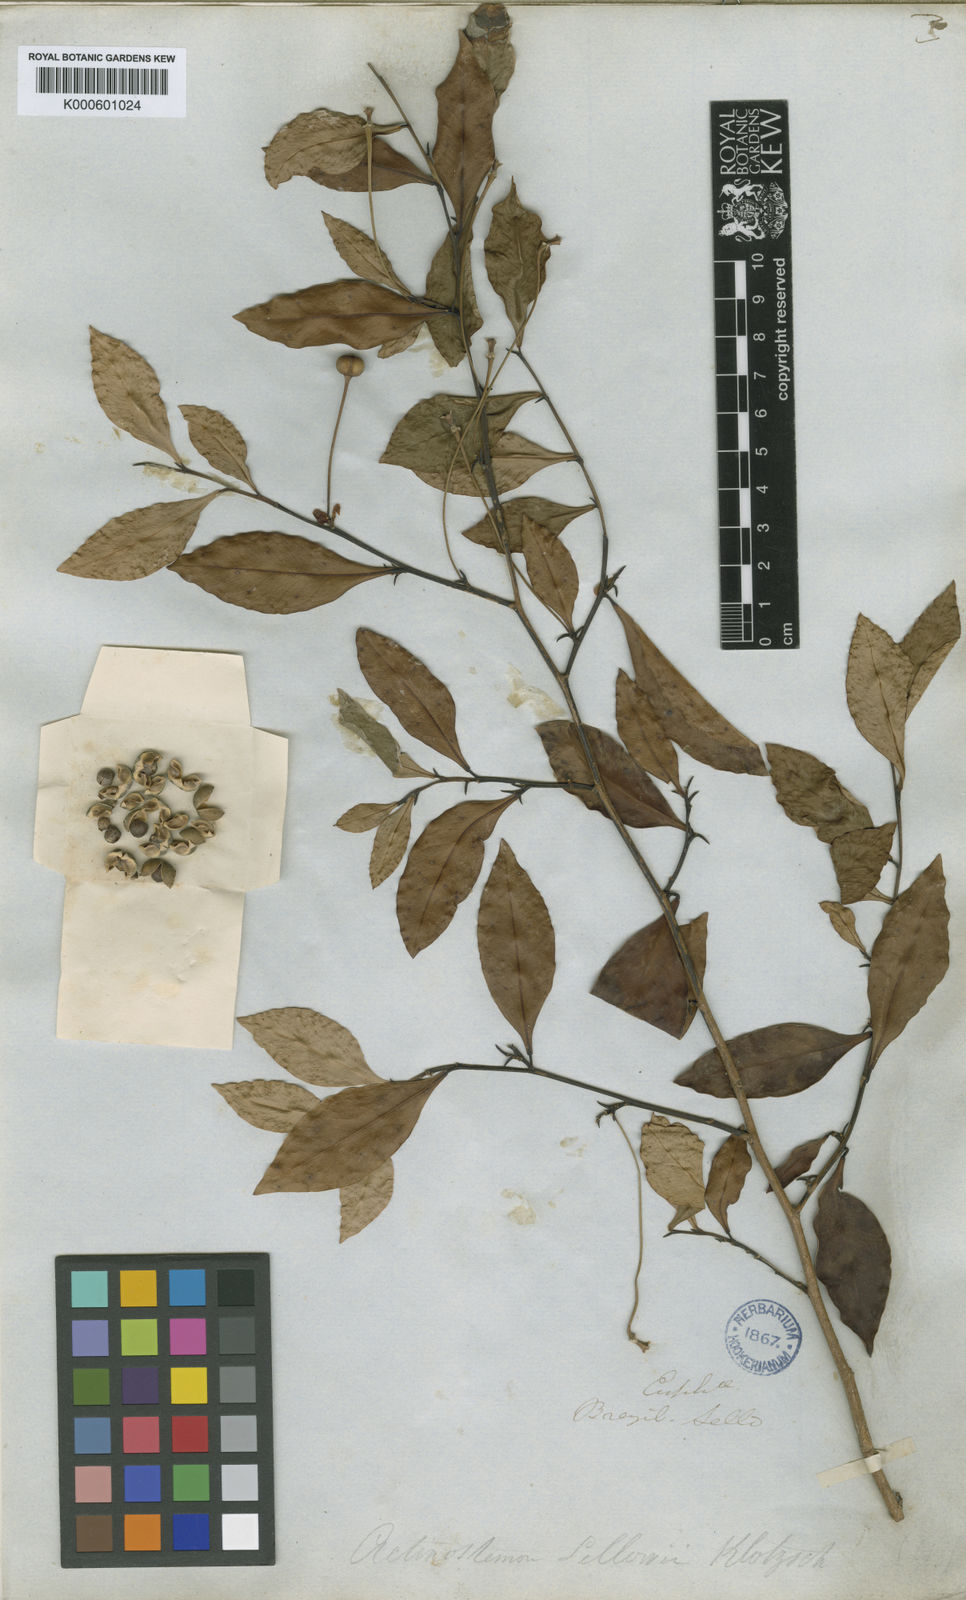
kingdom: Plantae
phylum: Tracheophyta
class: Magnoliopsida
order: Malpighiales
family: Euphorbiaceae
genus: Actinostemon
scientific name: Actinostemon
